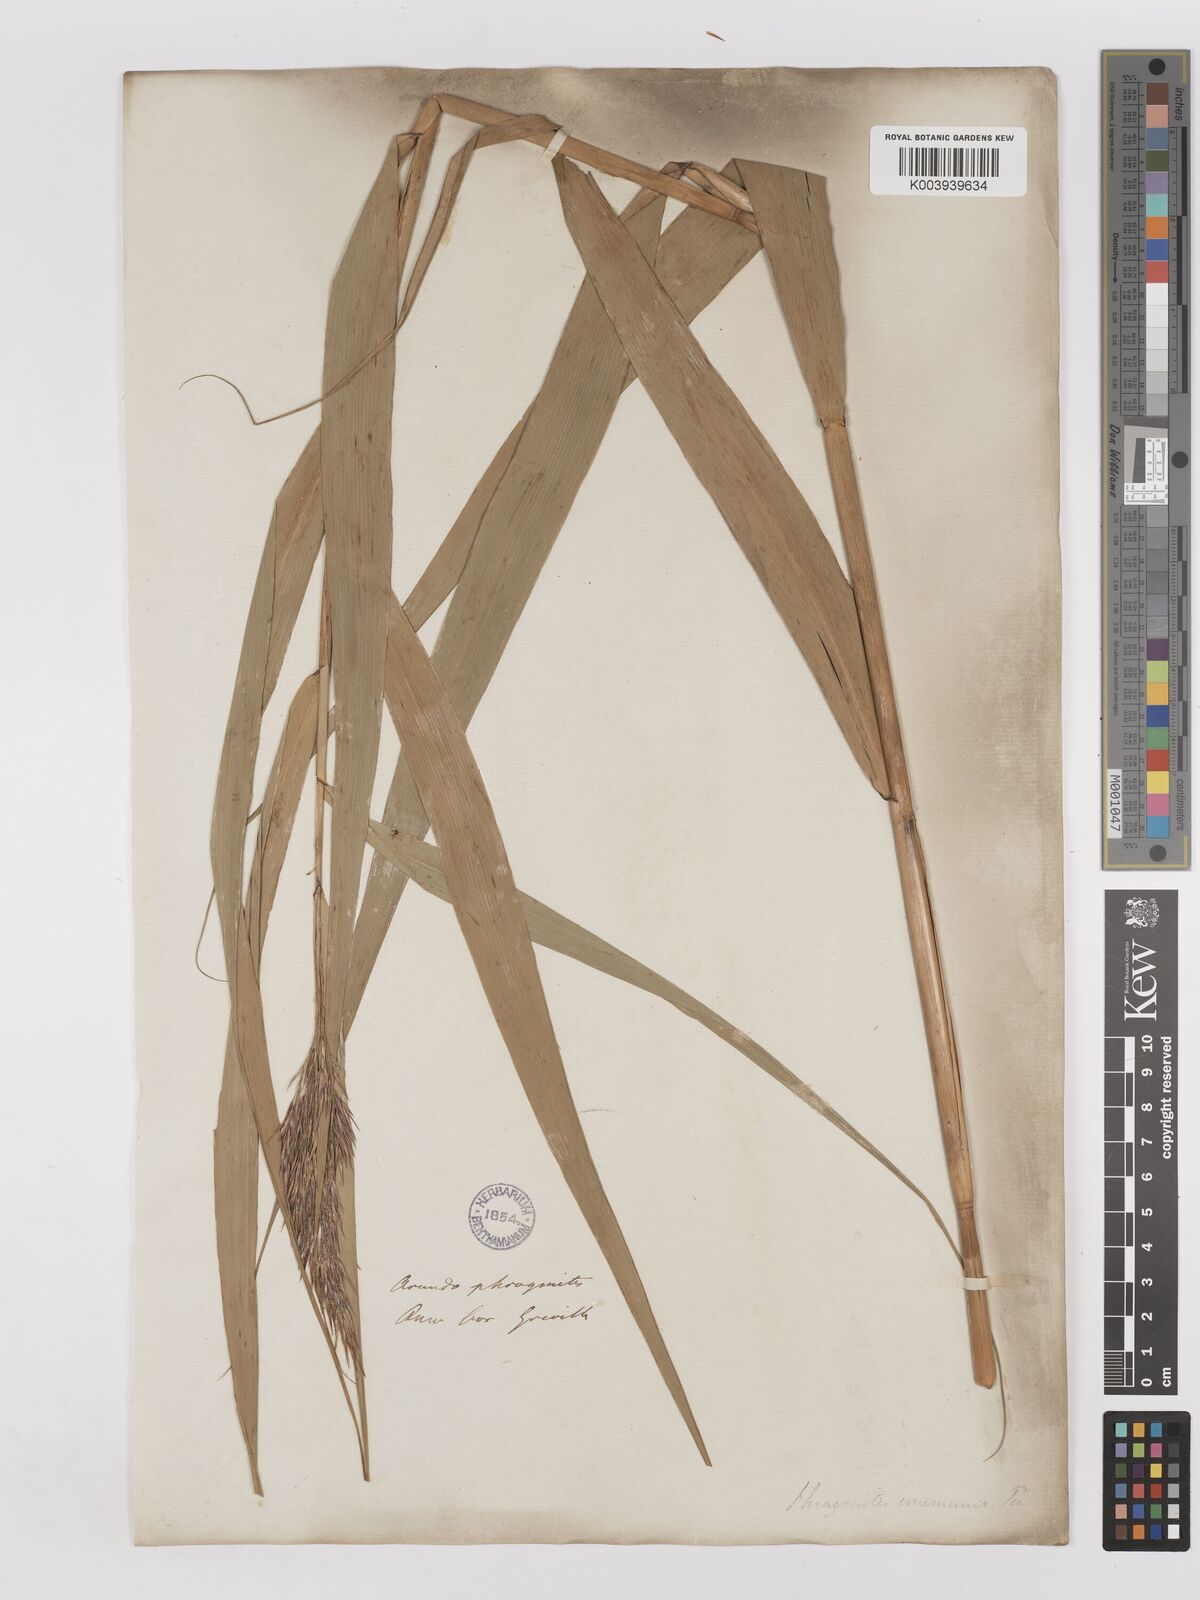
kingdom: Plantae
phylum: Tracheophyta
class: Liliopsida
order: Poales
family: Poaceae
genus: Phragmites
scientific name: Phragmites australis
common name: Common reed
